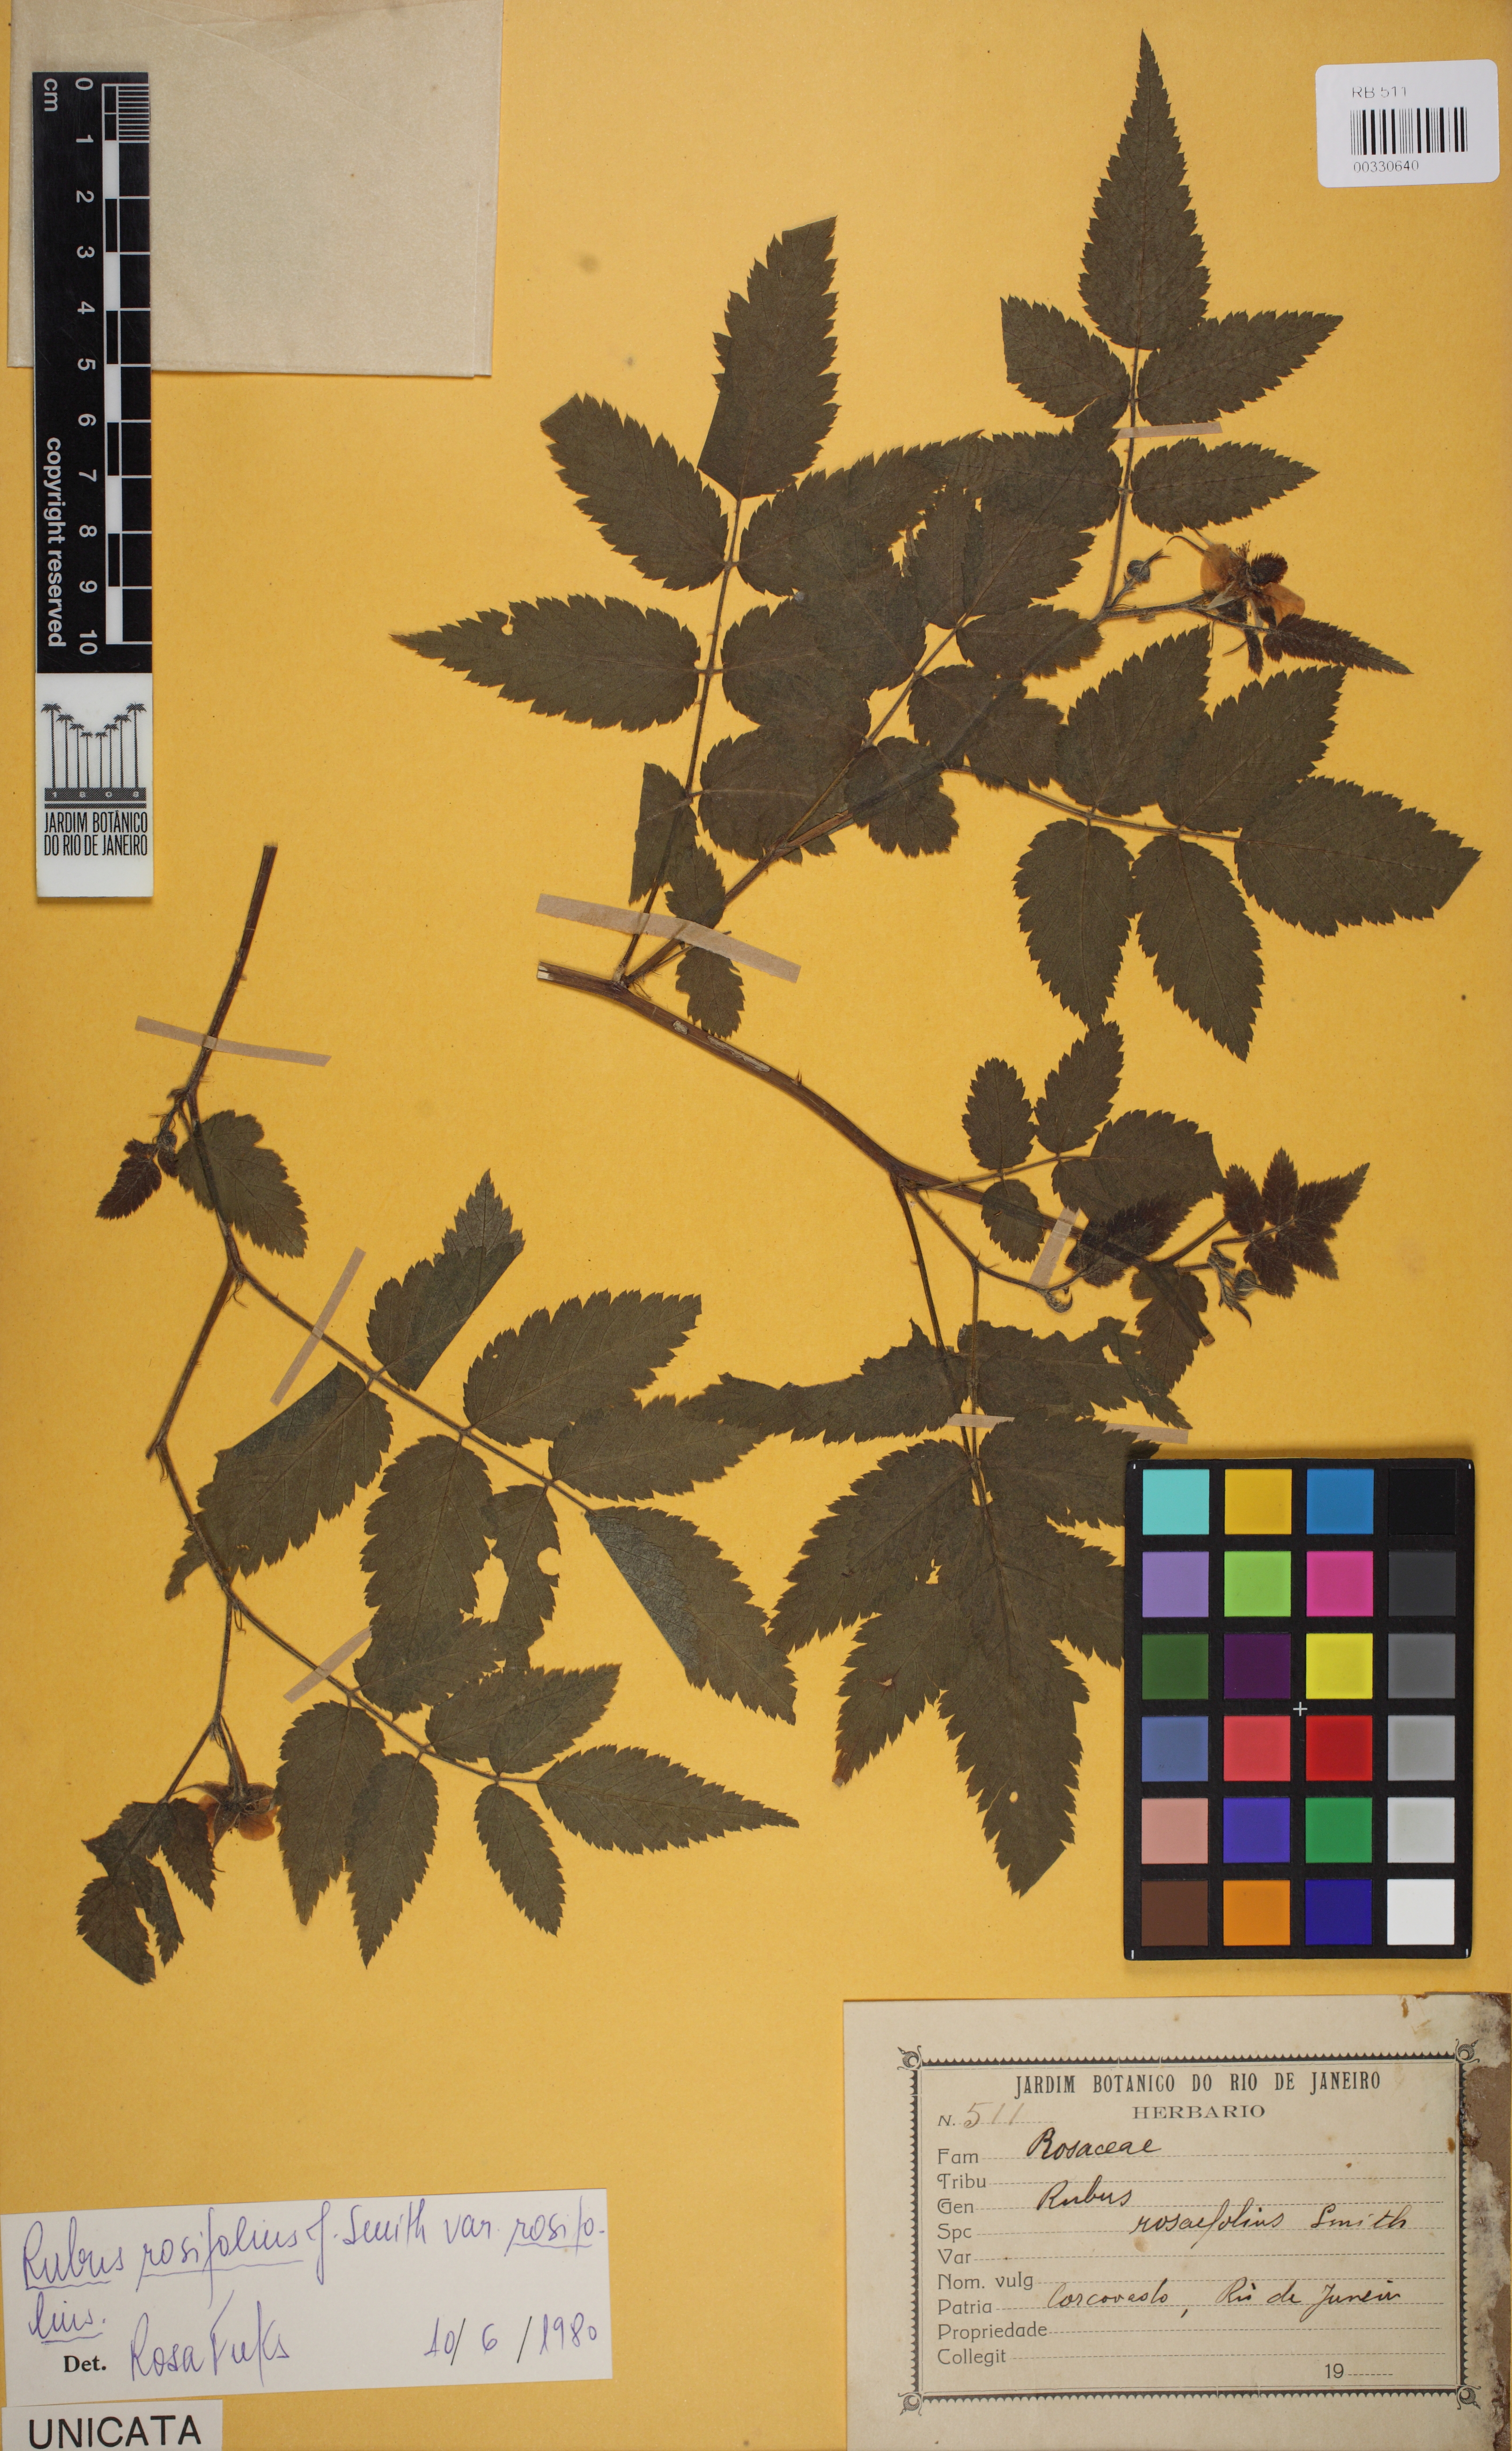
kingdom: Plantae
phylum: Tracheophyta
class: Magnoliopsida
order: Rosales
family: Rosaceae
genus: Rubus
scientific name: Rubus rosifolius
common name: Roseleaf raspberry
